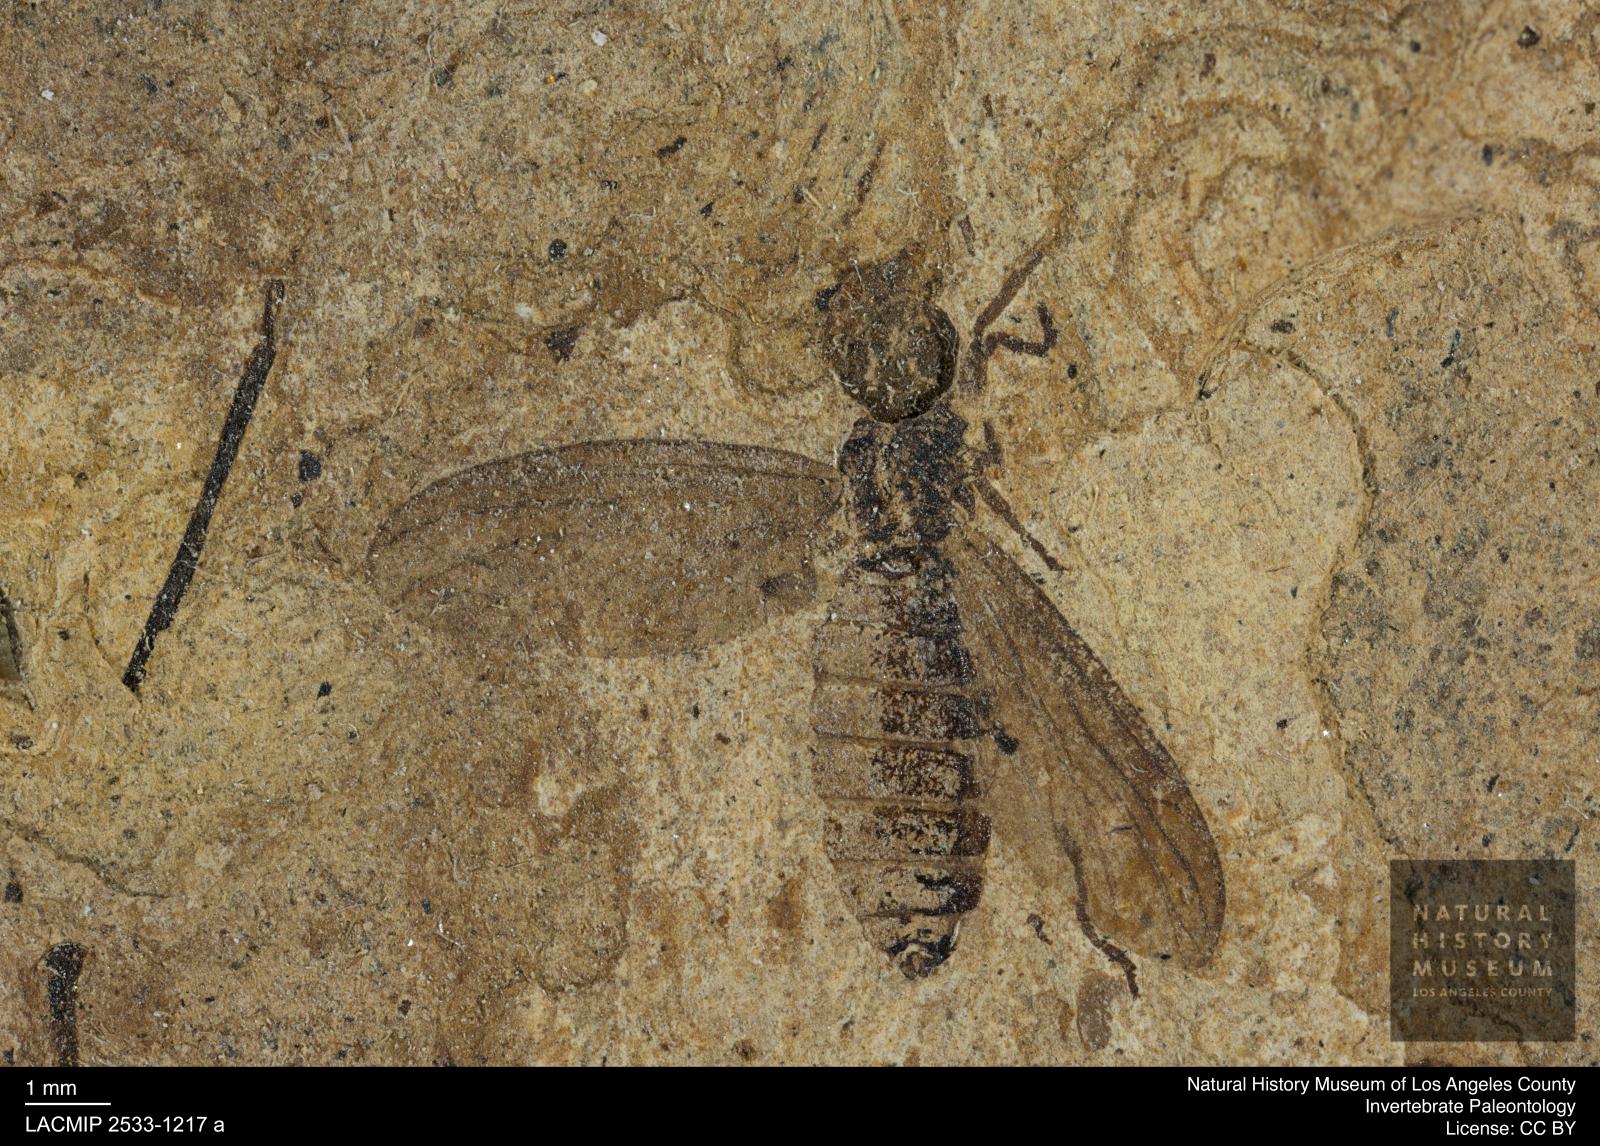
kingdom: Animalia
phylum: Arthropoda
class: Insecta
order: Diptera
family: Bibionidae
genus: Plecia
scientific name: Plecia hypogaea
